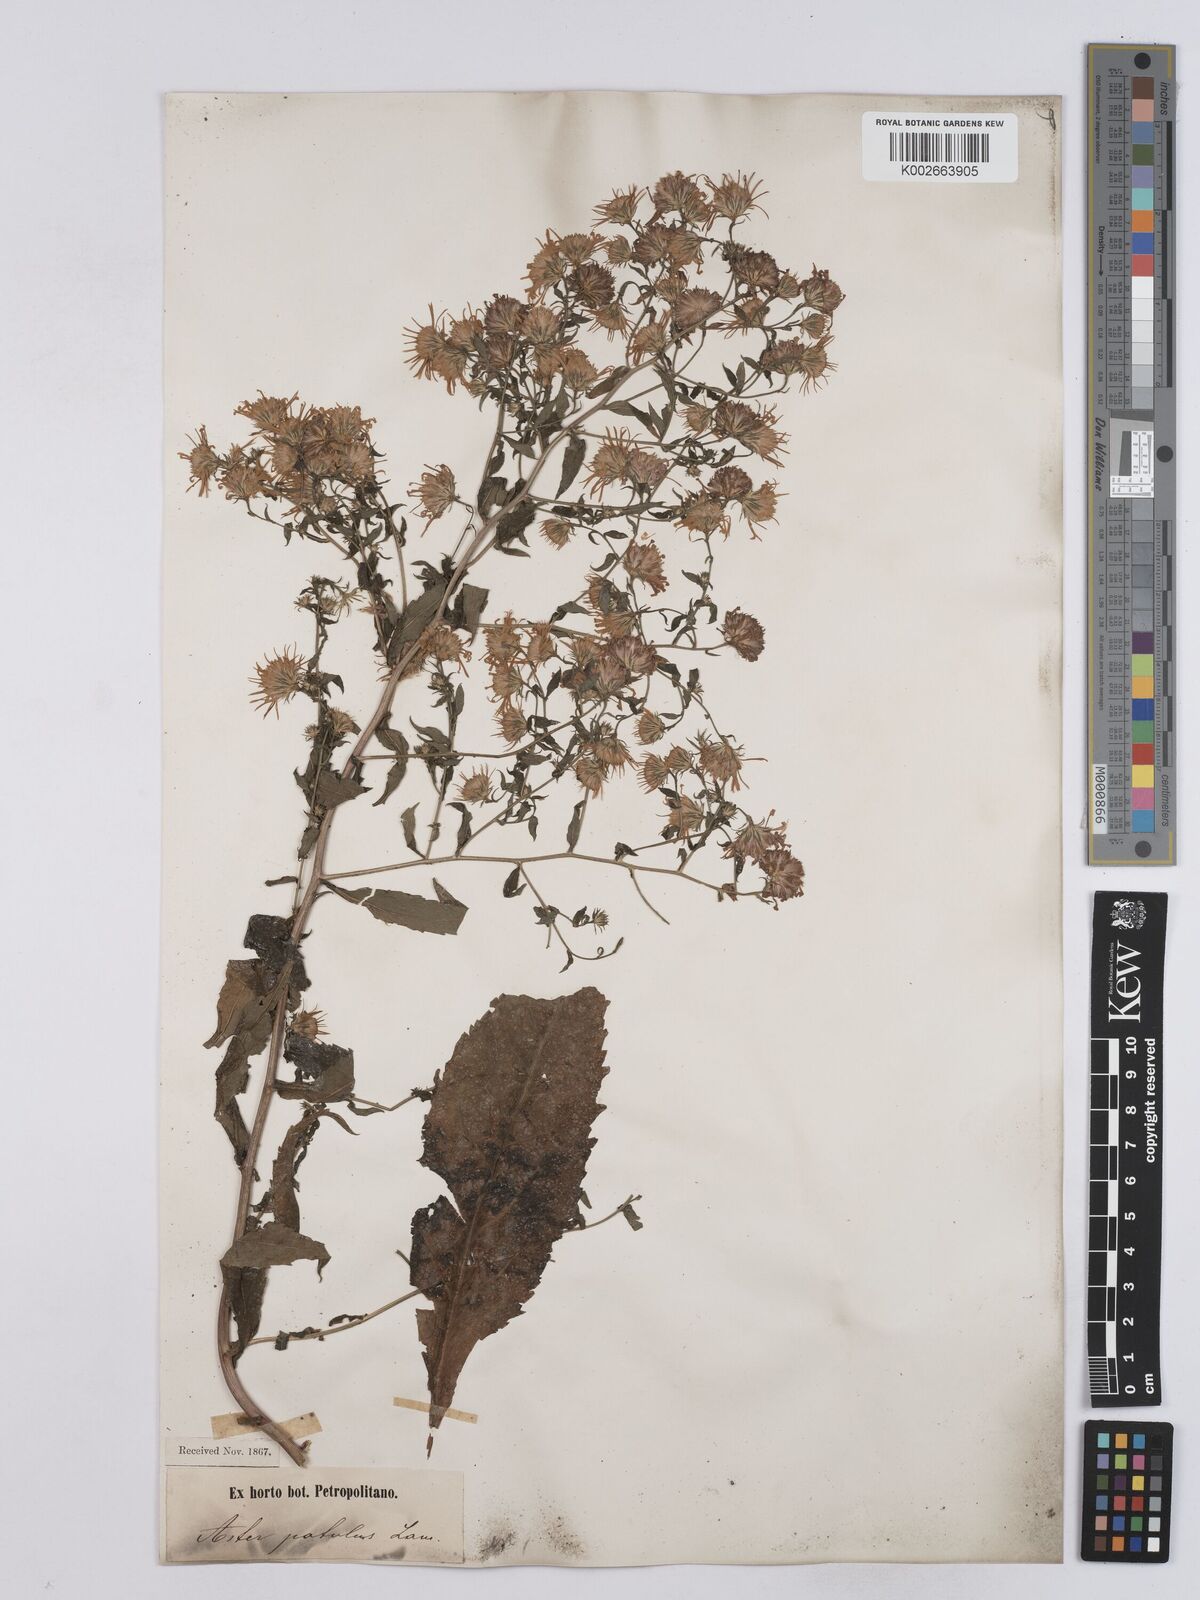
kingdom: Plantae
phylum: Tracheophyta
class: Magnoliopsida
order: Asterales
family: Asteraceae
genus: Symphyotrichum
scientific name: Symphyotrichum
